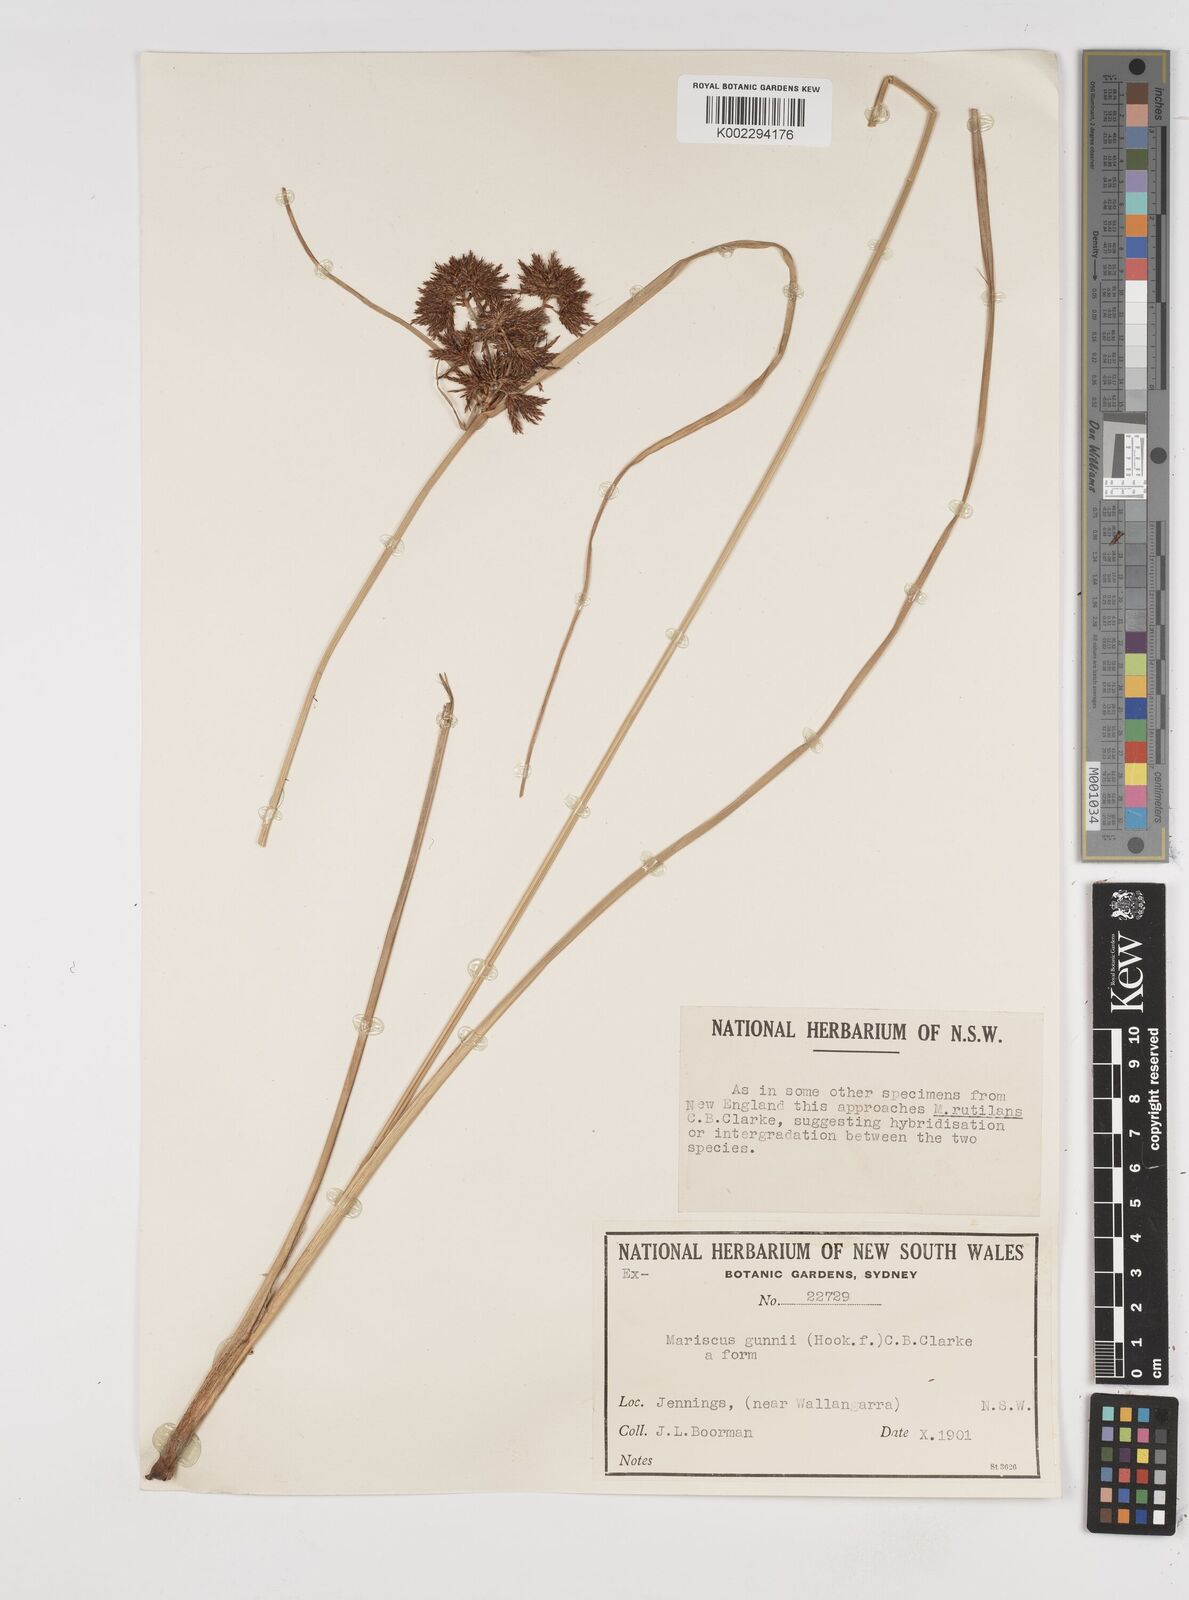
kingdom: Plantae
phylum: Tracheophyta
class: Liliopsida
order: Poales
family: Cyperaceae
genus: Cyperus
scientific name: Cyperus gunnii
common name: Flecked flat-sedge
